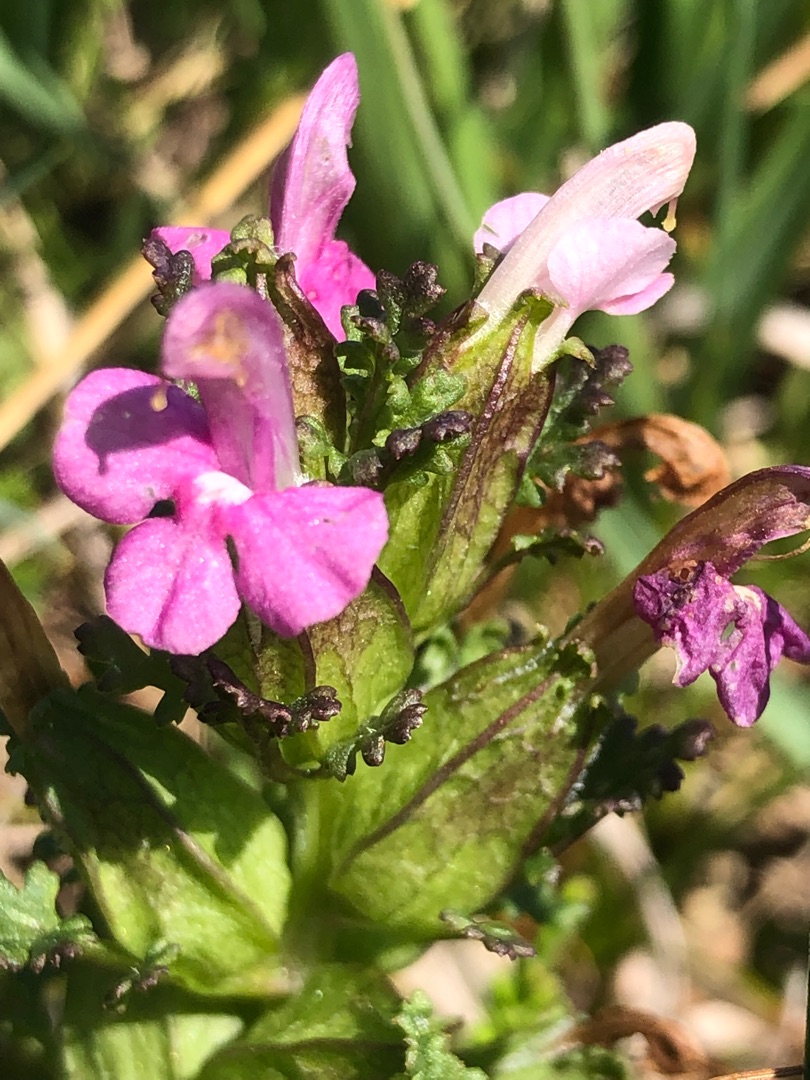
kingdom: Plantae
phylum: Tracheophyta
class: Magnoliopsida
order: Lamiales
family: Orobanchaceae
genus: Pedicularis
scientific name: Pedicularis palustris
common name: Eng-troldurt
